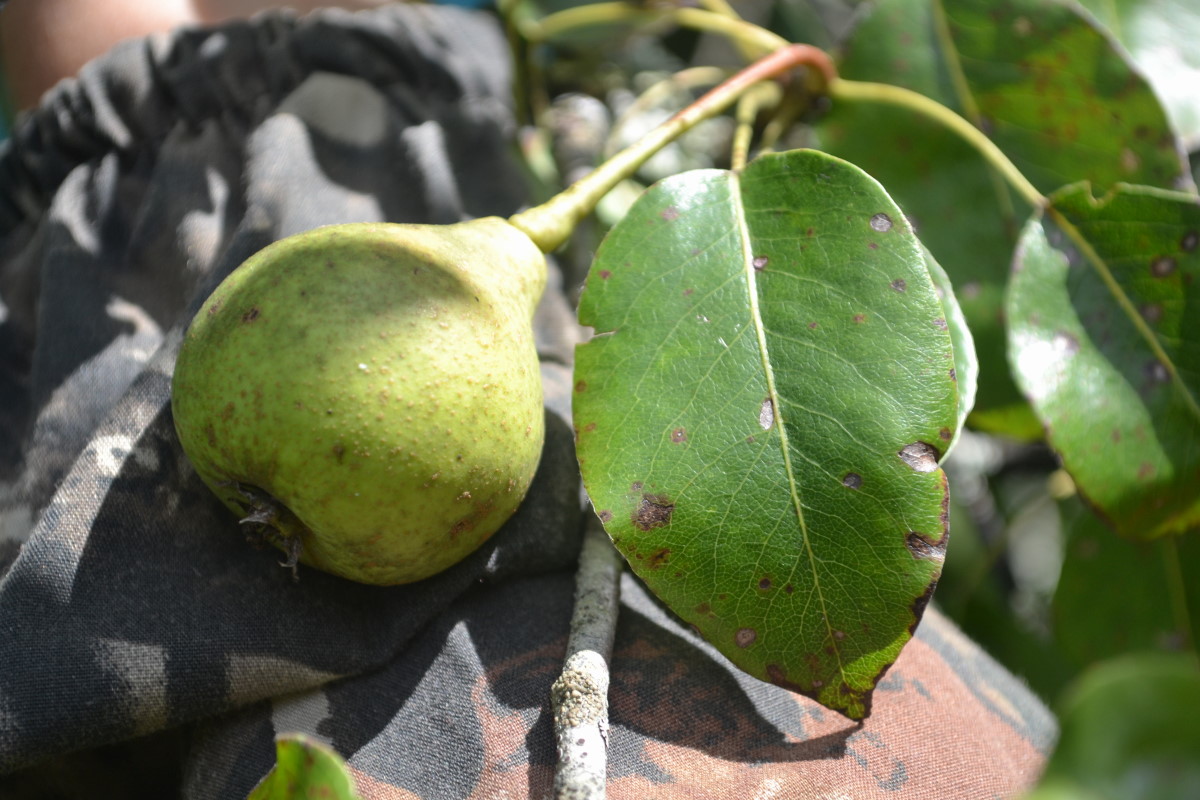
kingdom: Plantae
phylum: Tracheophyta
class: Magnoliopsida
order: Rosales
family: Rosaceae
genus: Pyrus
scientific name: Pyrus
